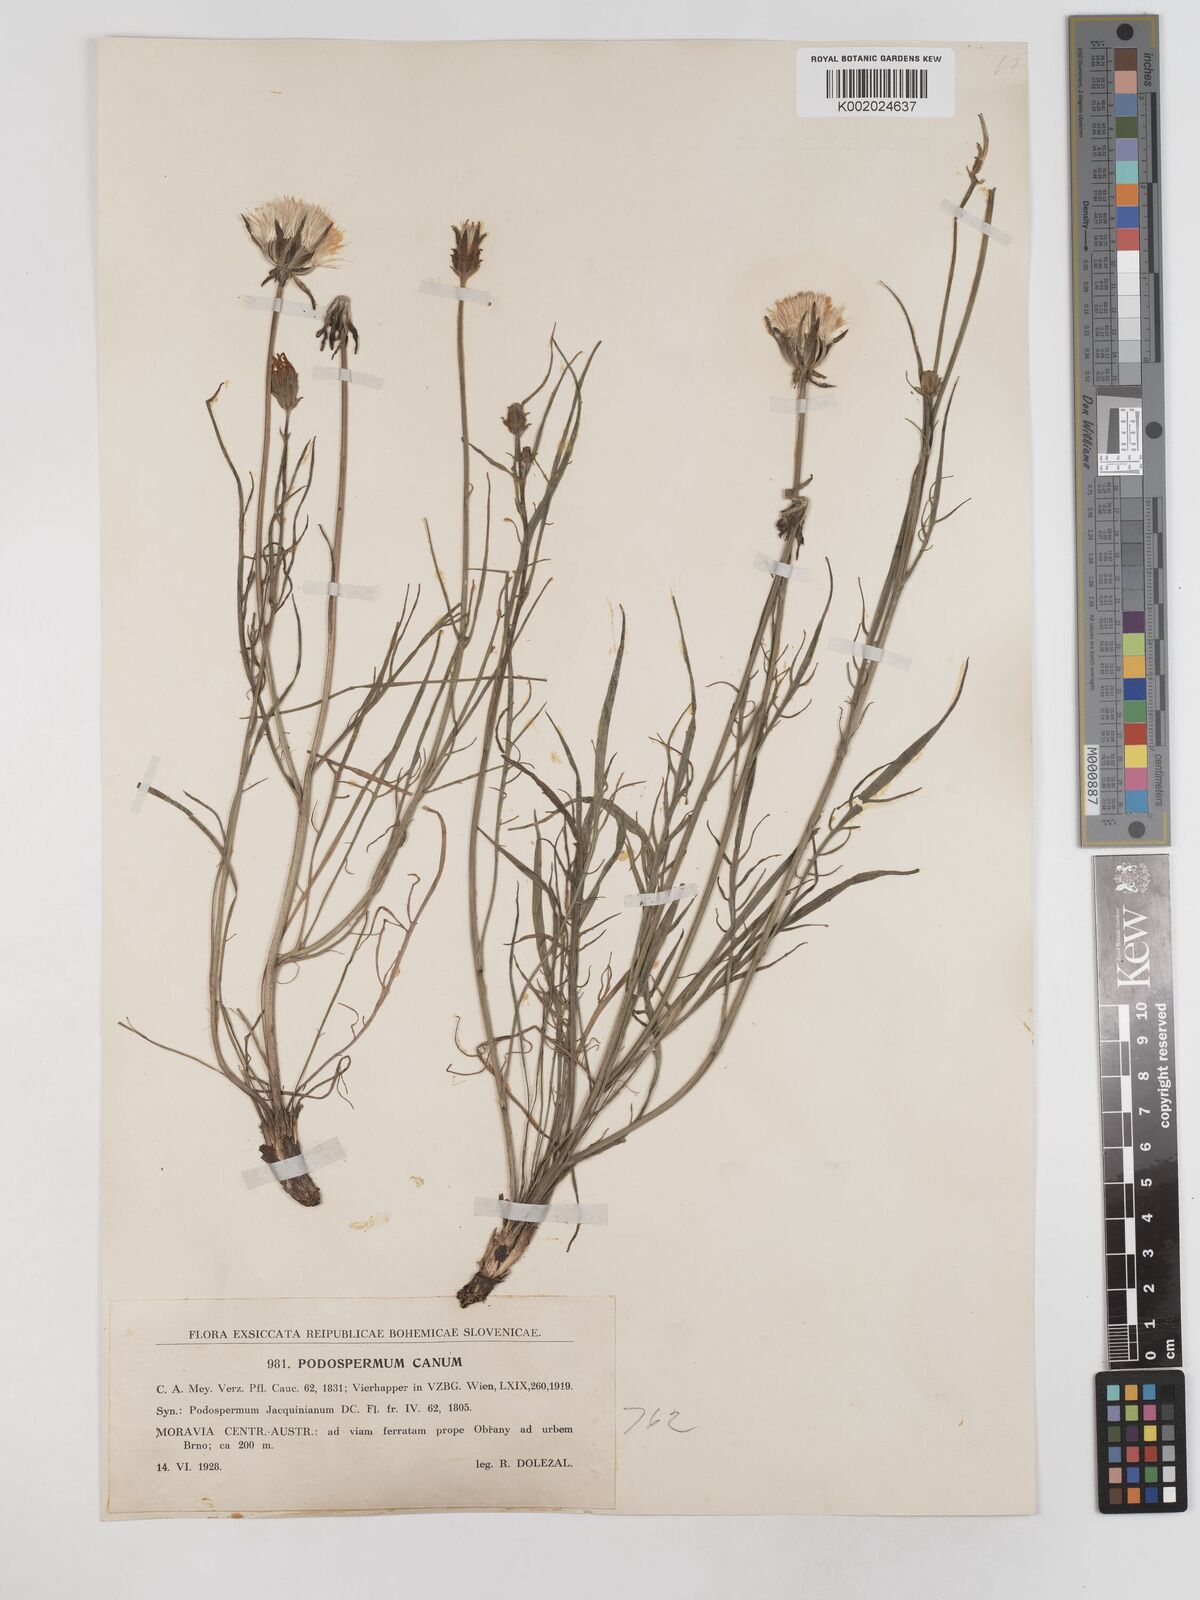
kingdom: Plantae
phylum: Tracheophyta
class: Magnoliopsida
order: Asterales
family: Asteraceae
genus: Scorzonera
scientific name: Scorzonera cana
